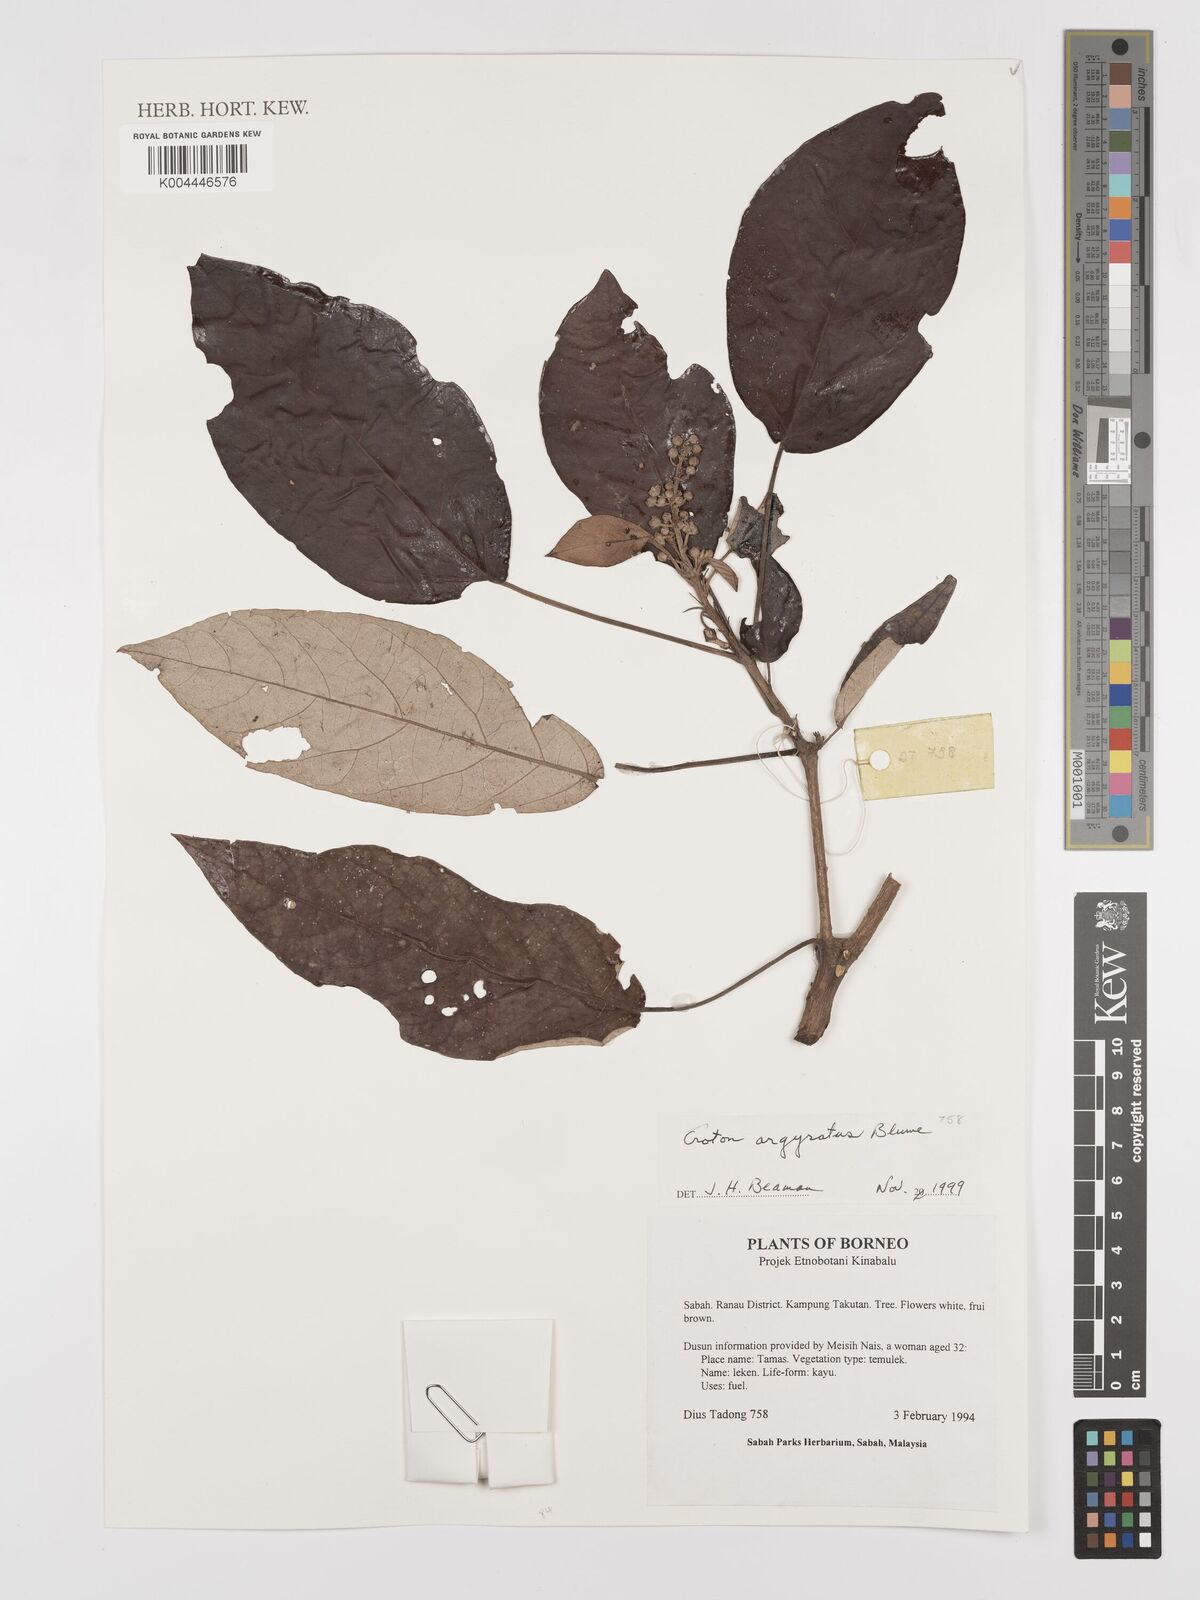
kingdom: Plantae
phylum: Tracheophyta
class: Magnoliopsida
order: Malpighiales
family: Euphorbiaceae
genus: Croton
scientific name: Croton argyratus
